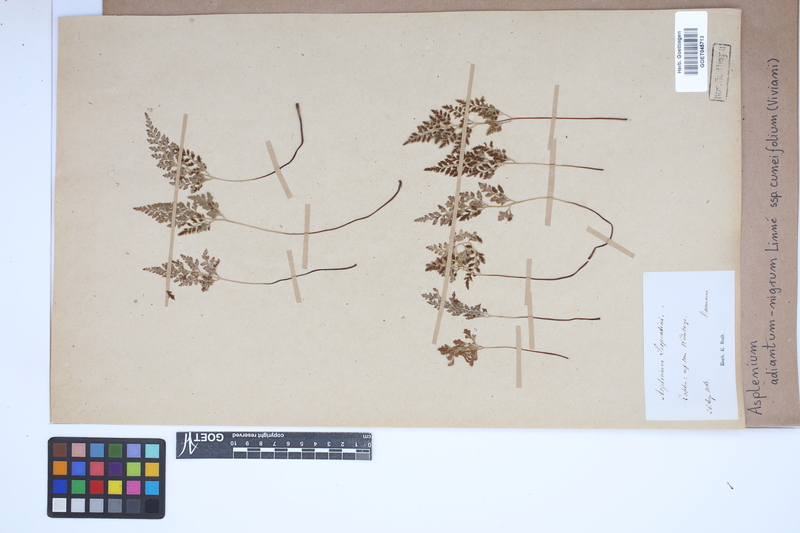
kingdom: Plantae
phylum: Tracheophyta
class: Polypodiopsida
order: Polypodiales
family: Aspleniaceae
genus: Asplenium
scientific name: Asplenium cuneifolium
